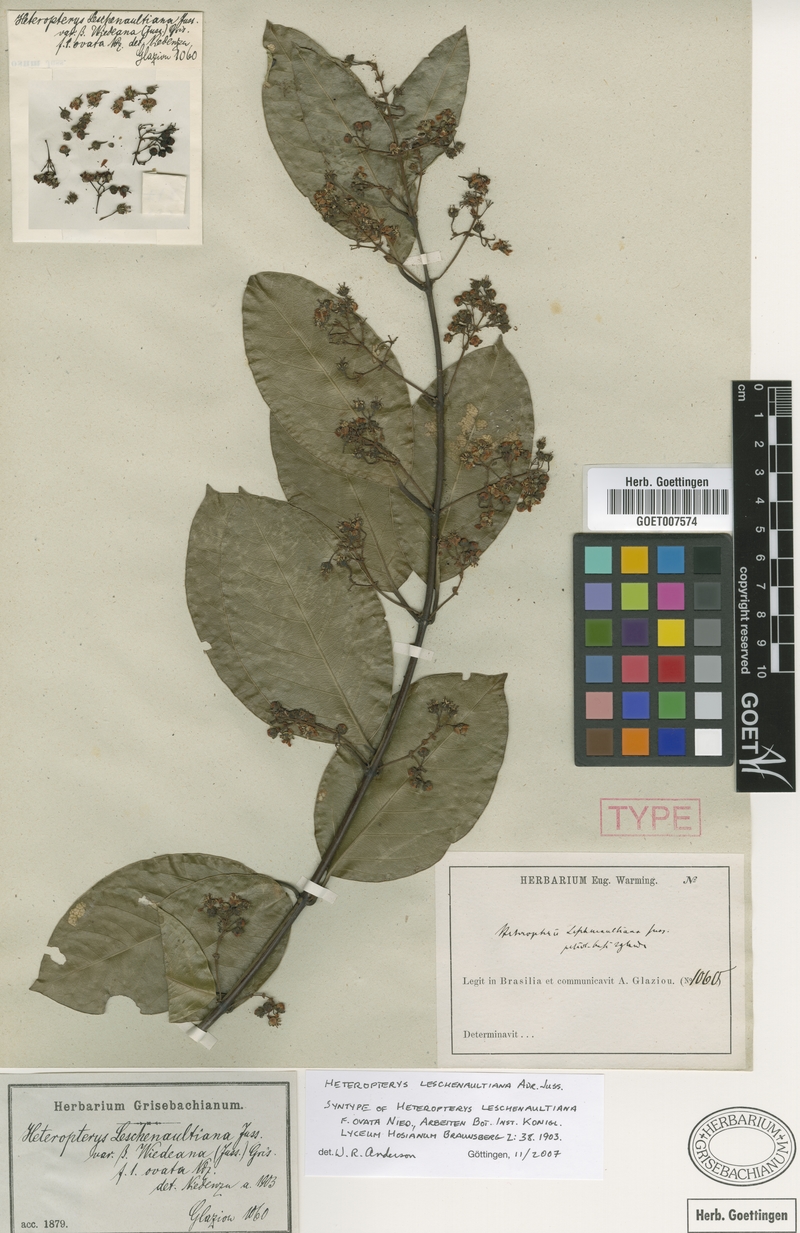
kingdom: Plantae
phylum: Tracheophyta
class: Magnoliopsida
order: Malpighiales
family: Malpighiaceae
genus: Heteropterys
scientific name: Heteropterys leschenaultiana
